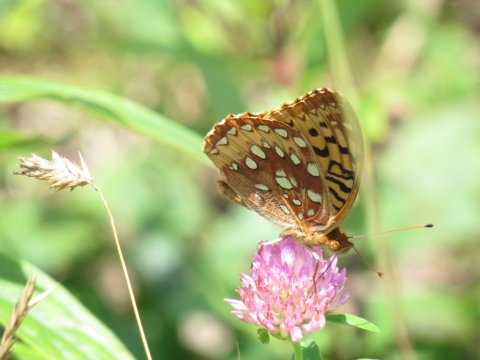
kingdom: Animalia
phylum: Arthropoda
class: Insecta
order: Lepidoptera
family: Nymphalidae
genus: Speyeria
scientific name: Speyeria cybele
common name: Great Spangled Fritillary
